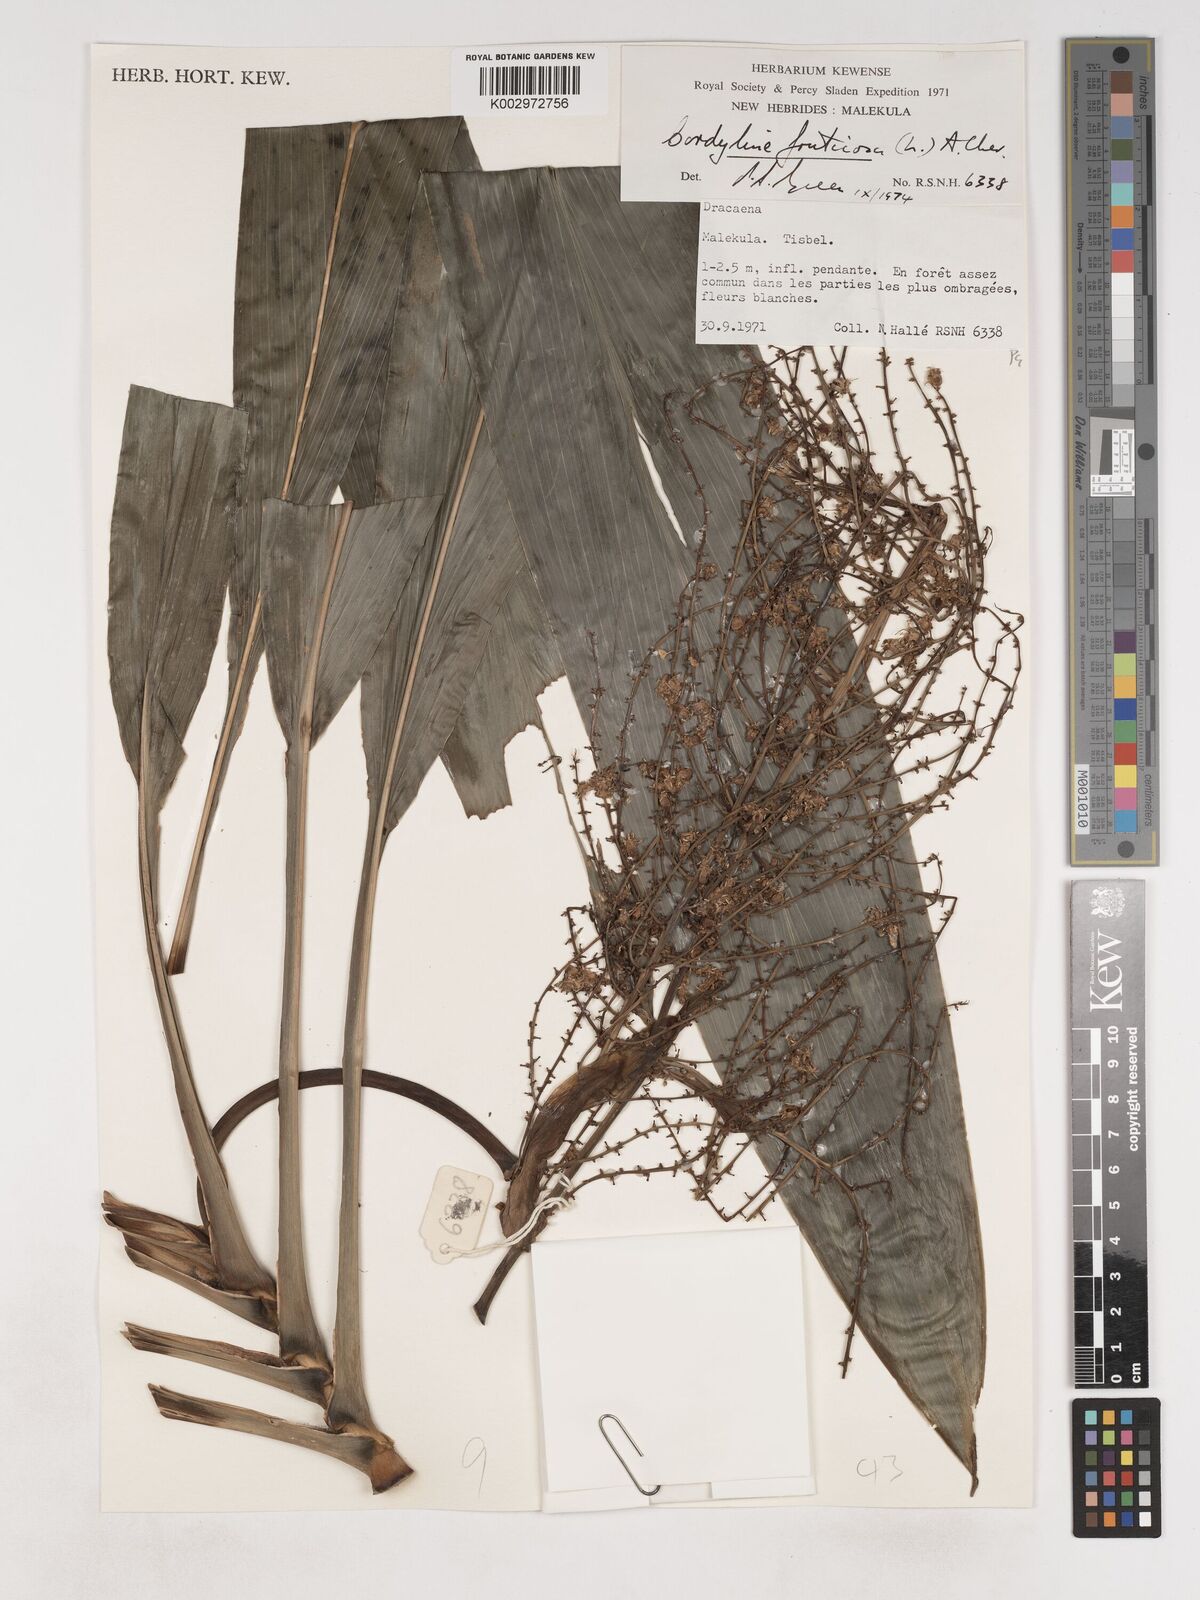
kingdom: Plantae
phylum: Tracheophyta
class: Liliopsida
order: Asparagales
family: Asparagaceae
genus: Cordyline
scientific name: Cordyline fruticosa
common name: Good-luck-plant
